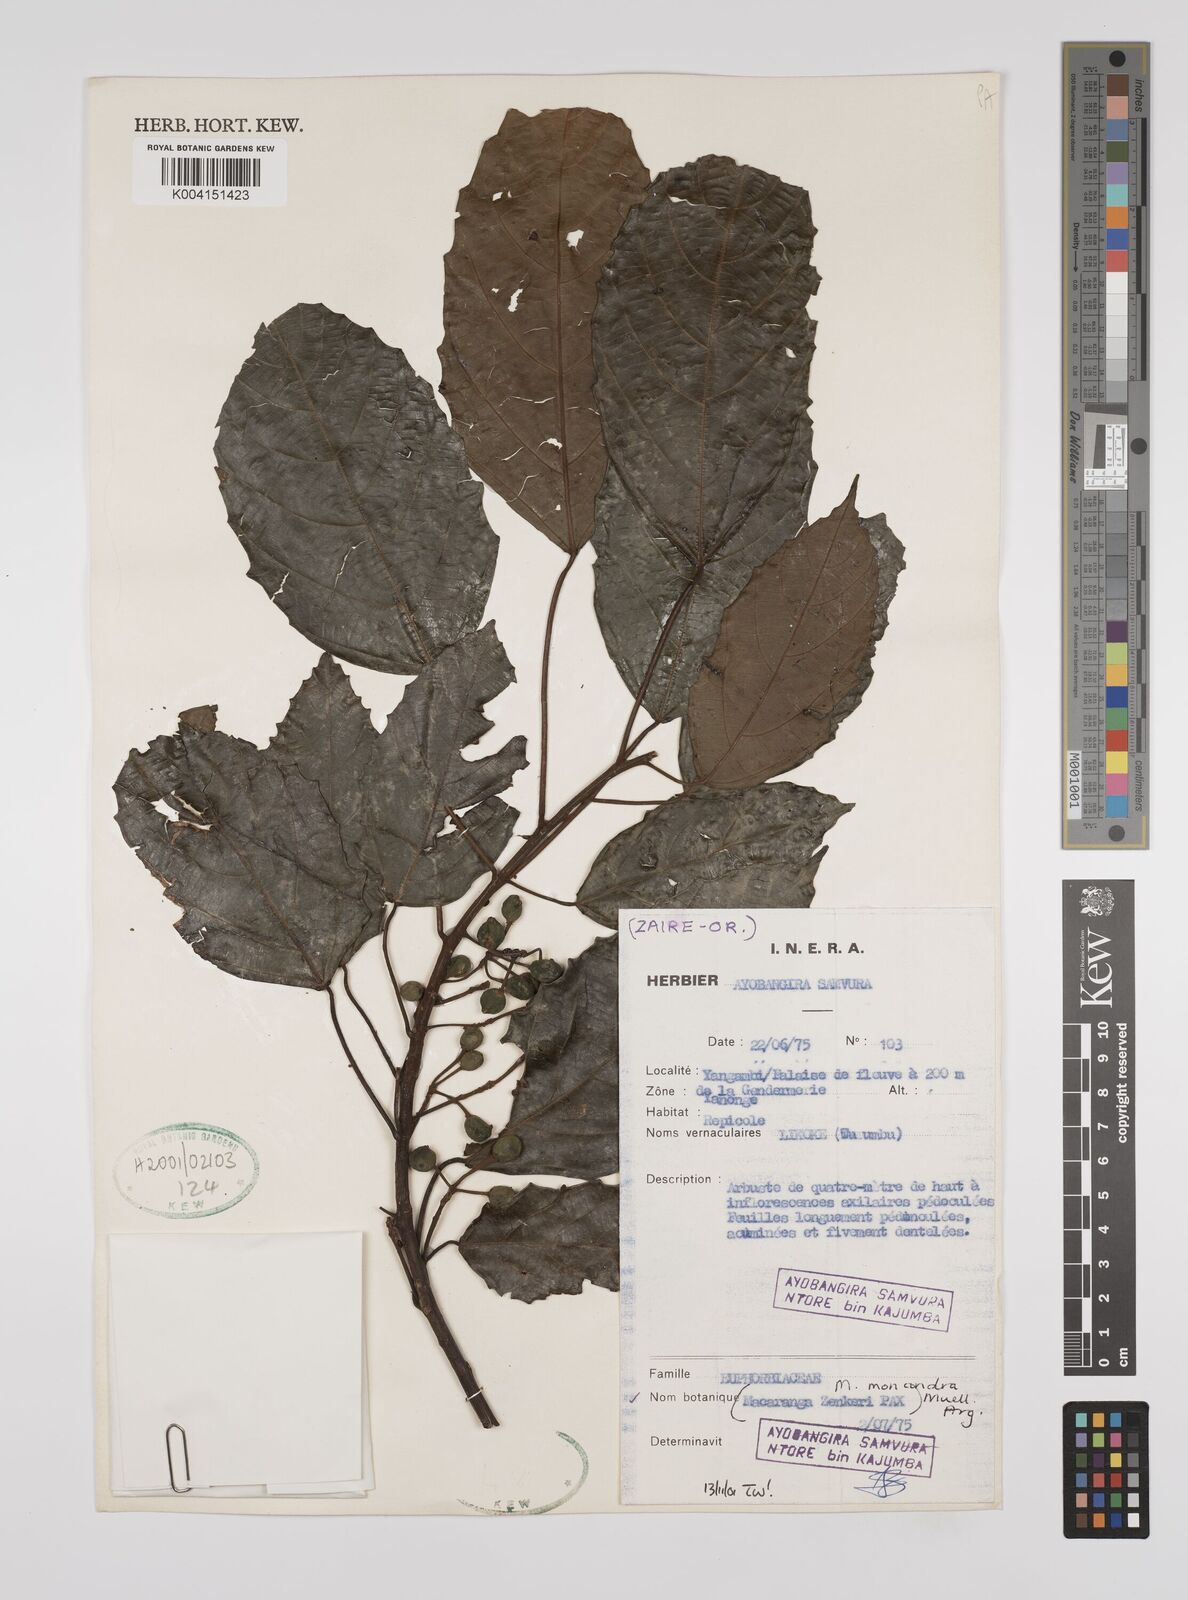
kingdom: Plantae
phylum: Tracheophyta
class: Magnoliopsida
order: Malpighiales
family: Euphorbiaceae
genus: Macaranga
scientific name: Macaranga monandra
